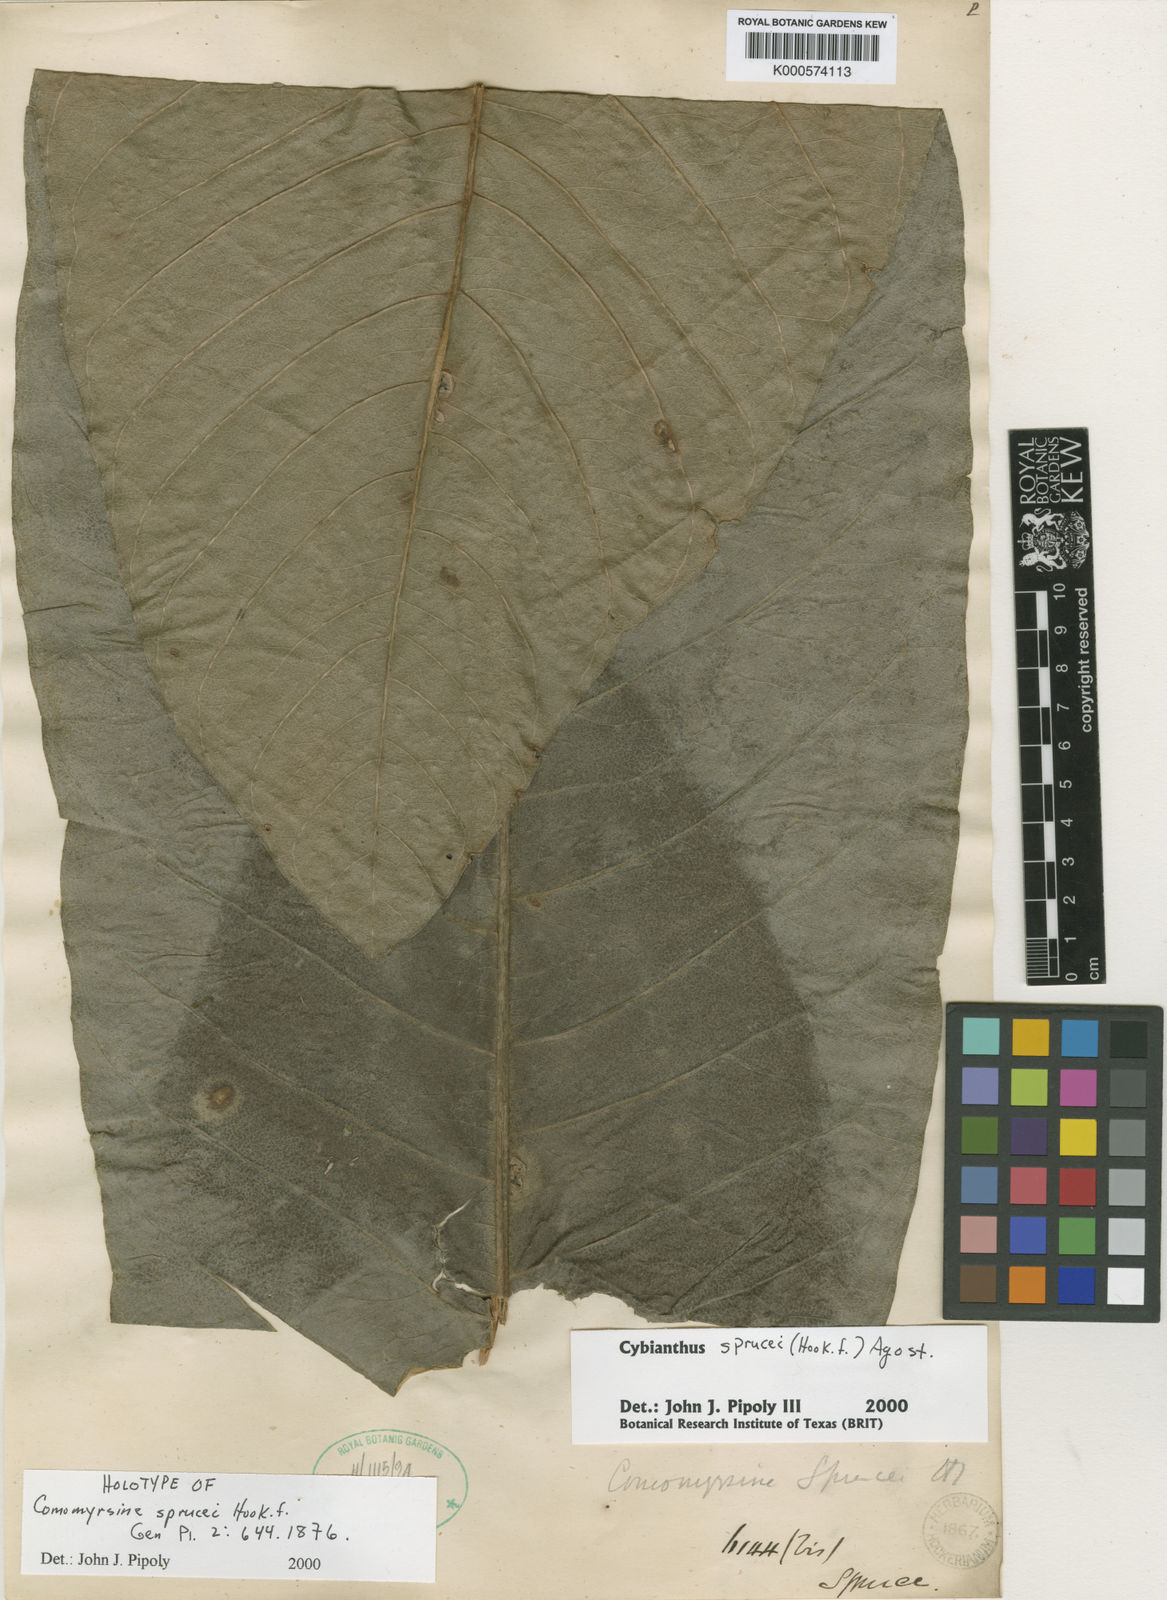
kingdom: Plantae
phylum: Tracheophyta
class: Magnoliopsida
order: Ericales
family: Primulaceae
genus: Cybianthus
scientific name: Cybianthus sprucei
